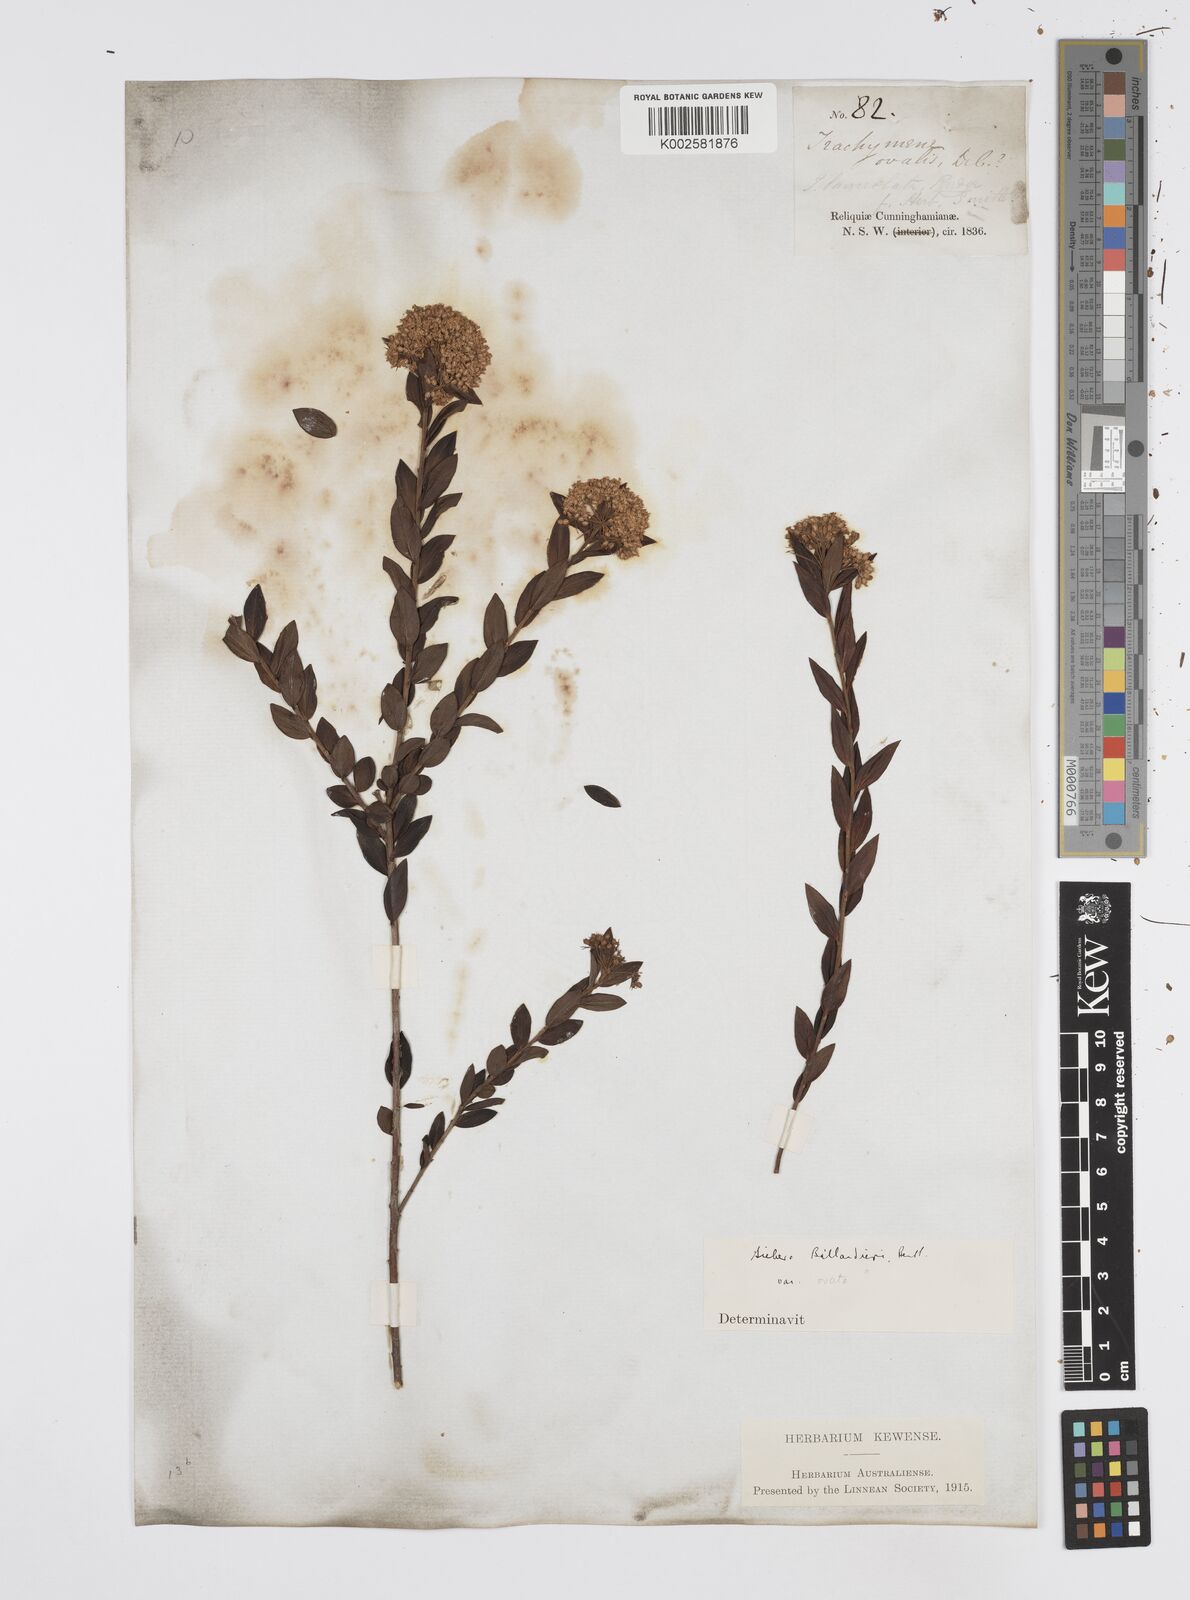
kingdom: Plantae
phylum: Tracheophyta
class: Magnoliopsida
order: Apiales
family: Apiaceae
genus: Platysace
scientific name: Platysace lanceolata
